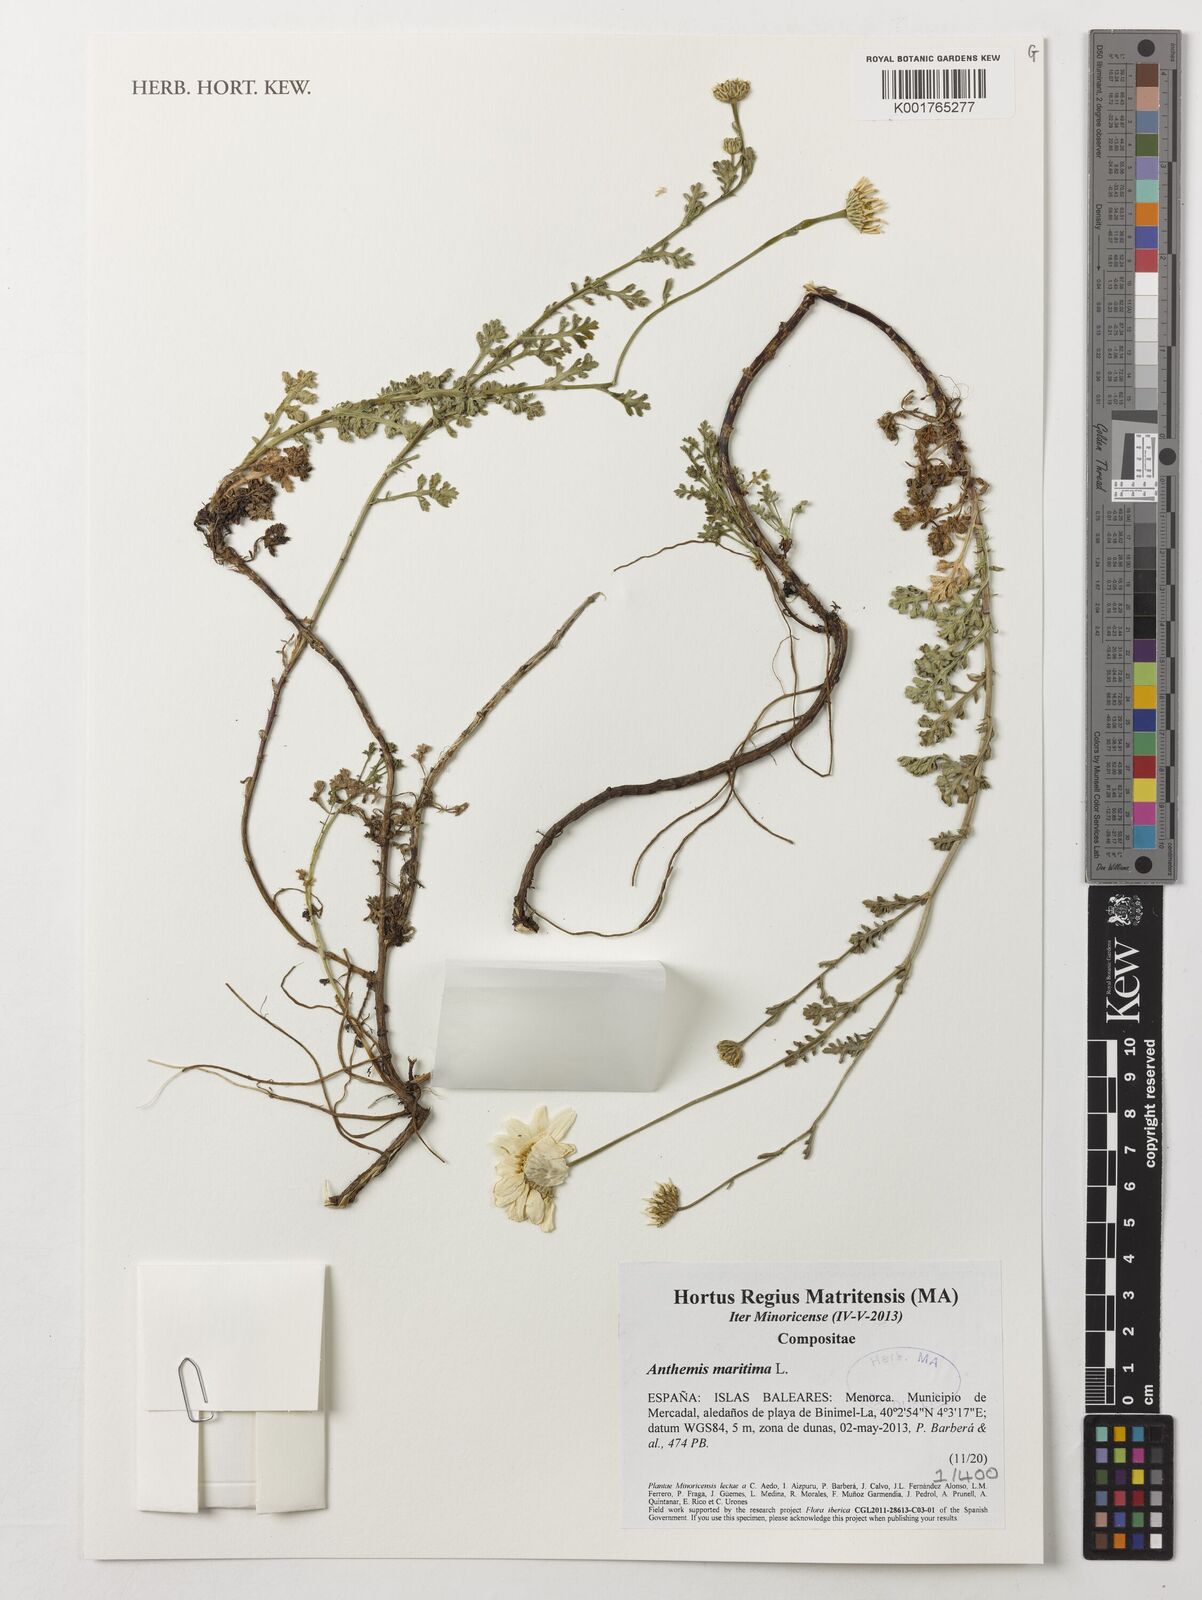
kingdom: Plantae
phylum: Tracheophyta
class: Magnoliopsida
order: Asterales
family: Asteraceae
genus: Anthemis
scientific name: Anthemis maritima
